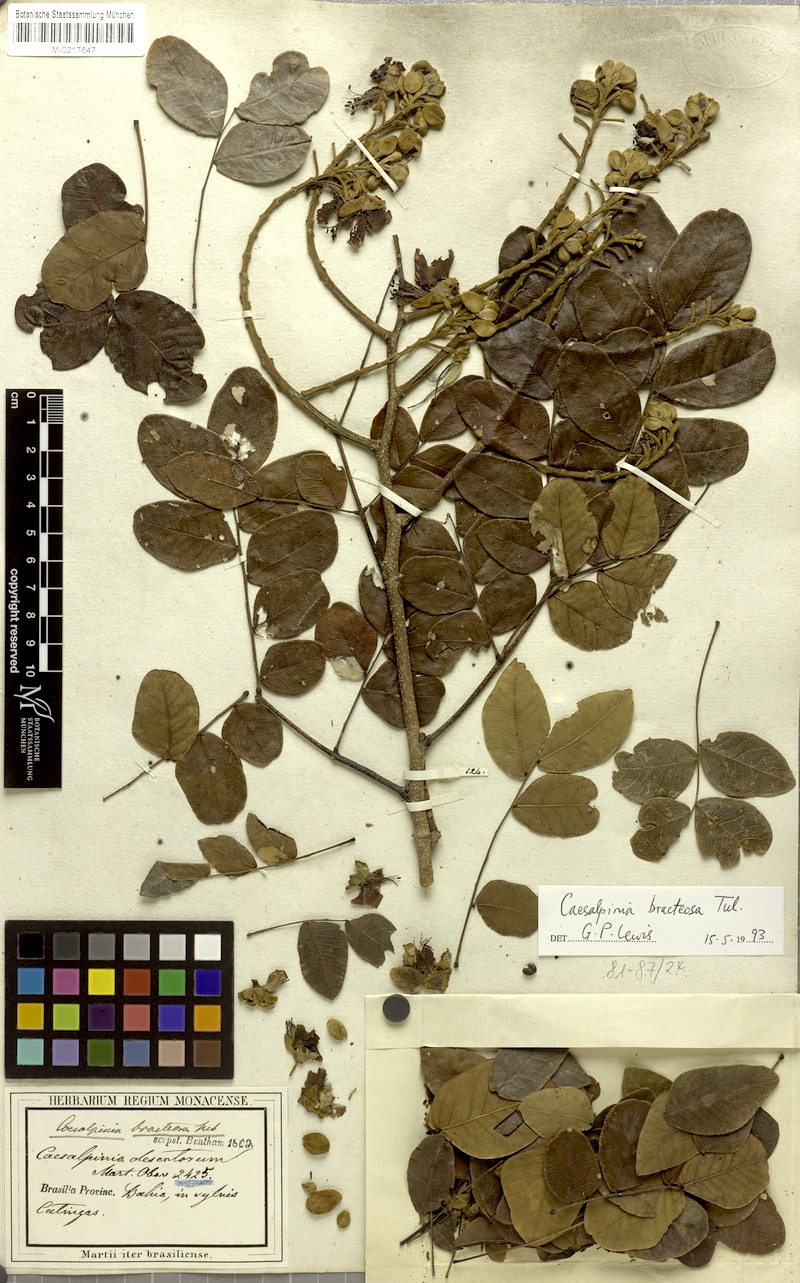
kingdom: Plantae
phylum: Tracheophyta
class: Magnoliopsida
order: Fabales
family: Fabaceae
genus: Cenostigma
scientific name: Cenostigma bracteosum
